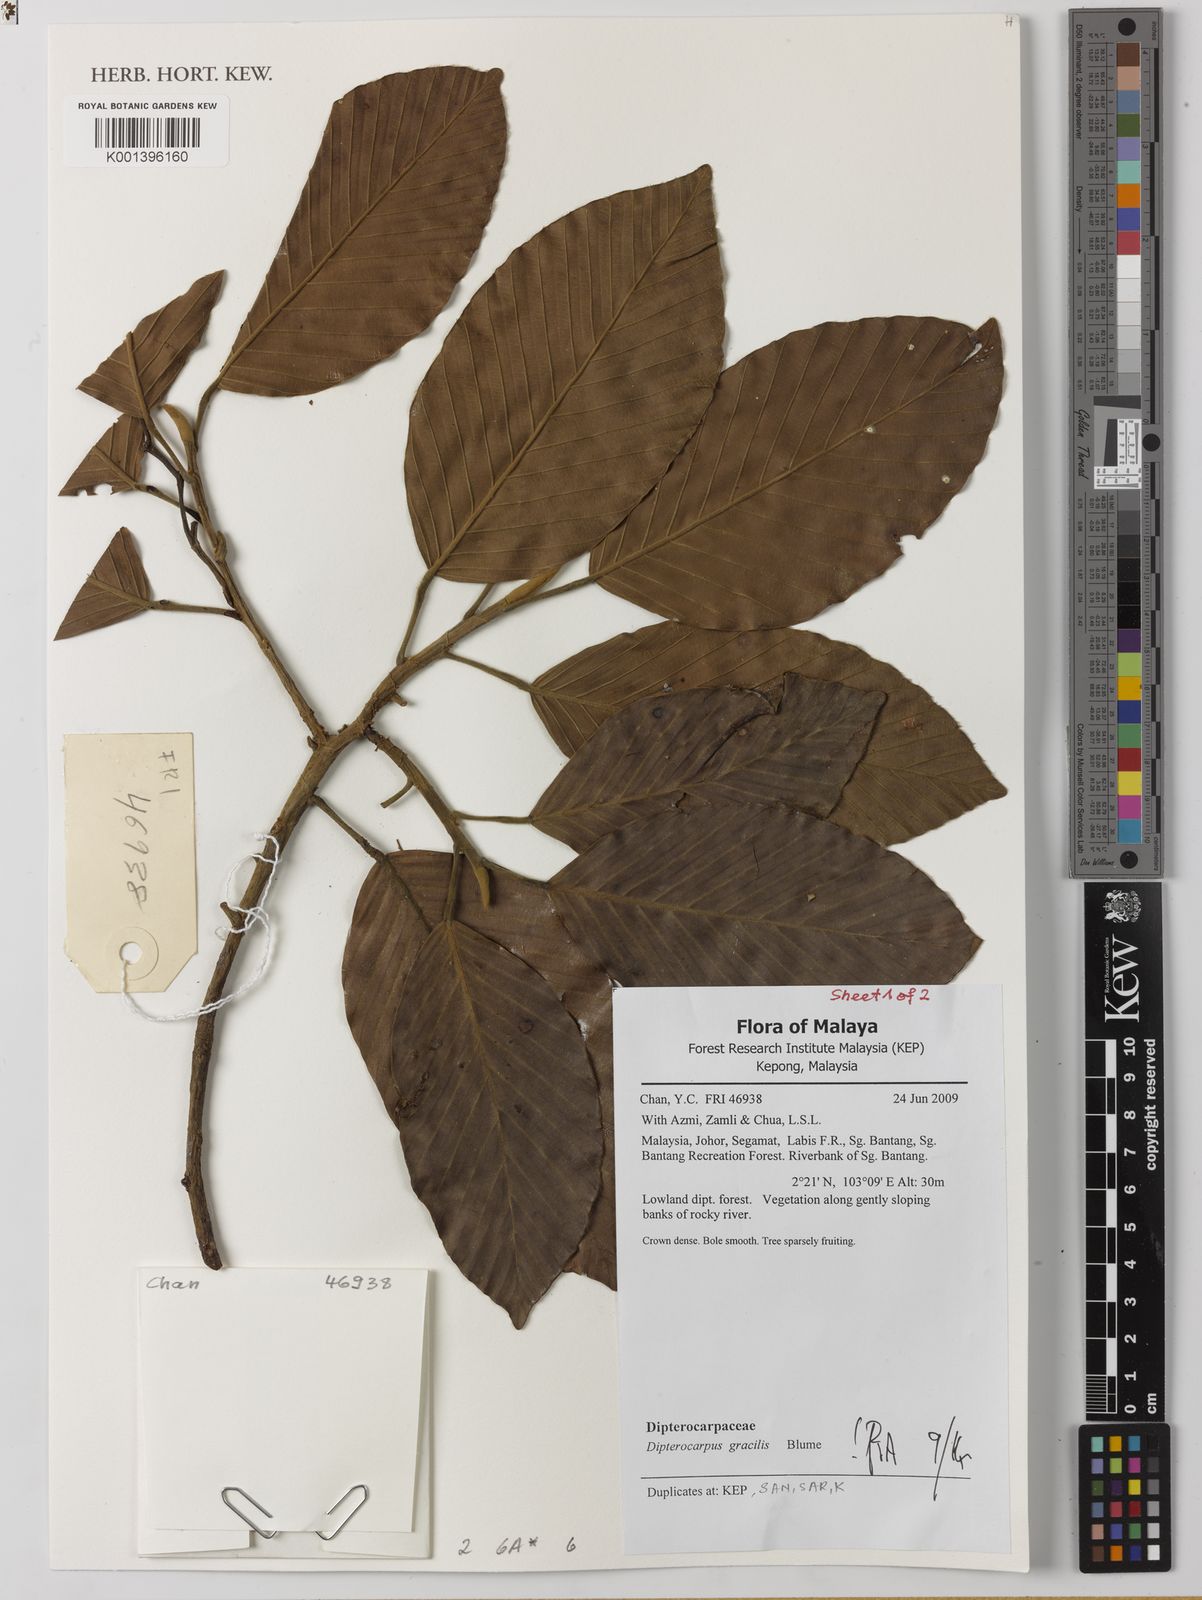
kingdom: Plantae
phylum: Tracheophyta
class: Magnoliopsida
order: Malvales
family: Dipterocarpaceae
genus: Dipterocarpus
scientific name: Dipterocarpus gracilis
